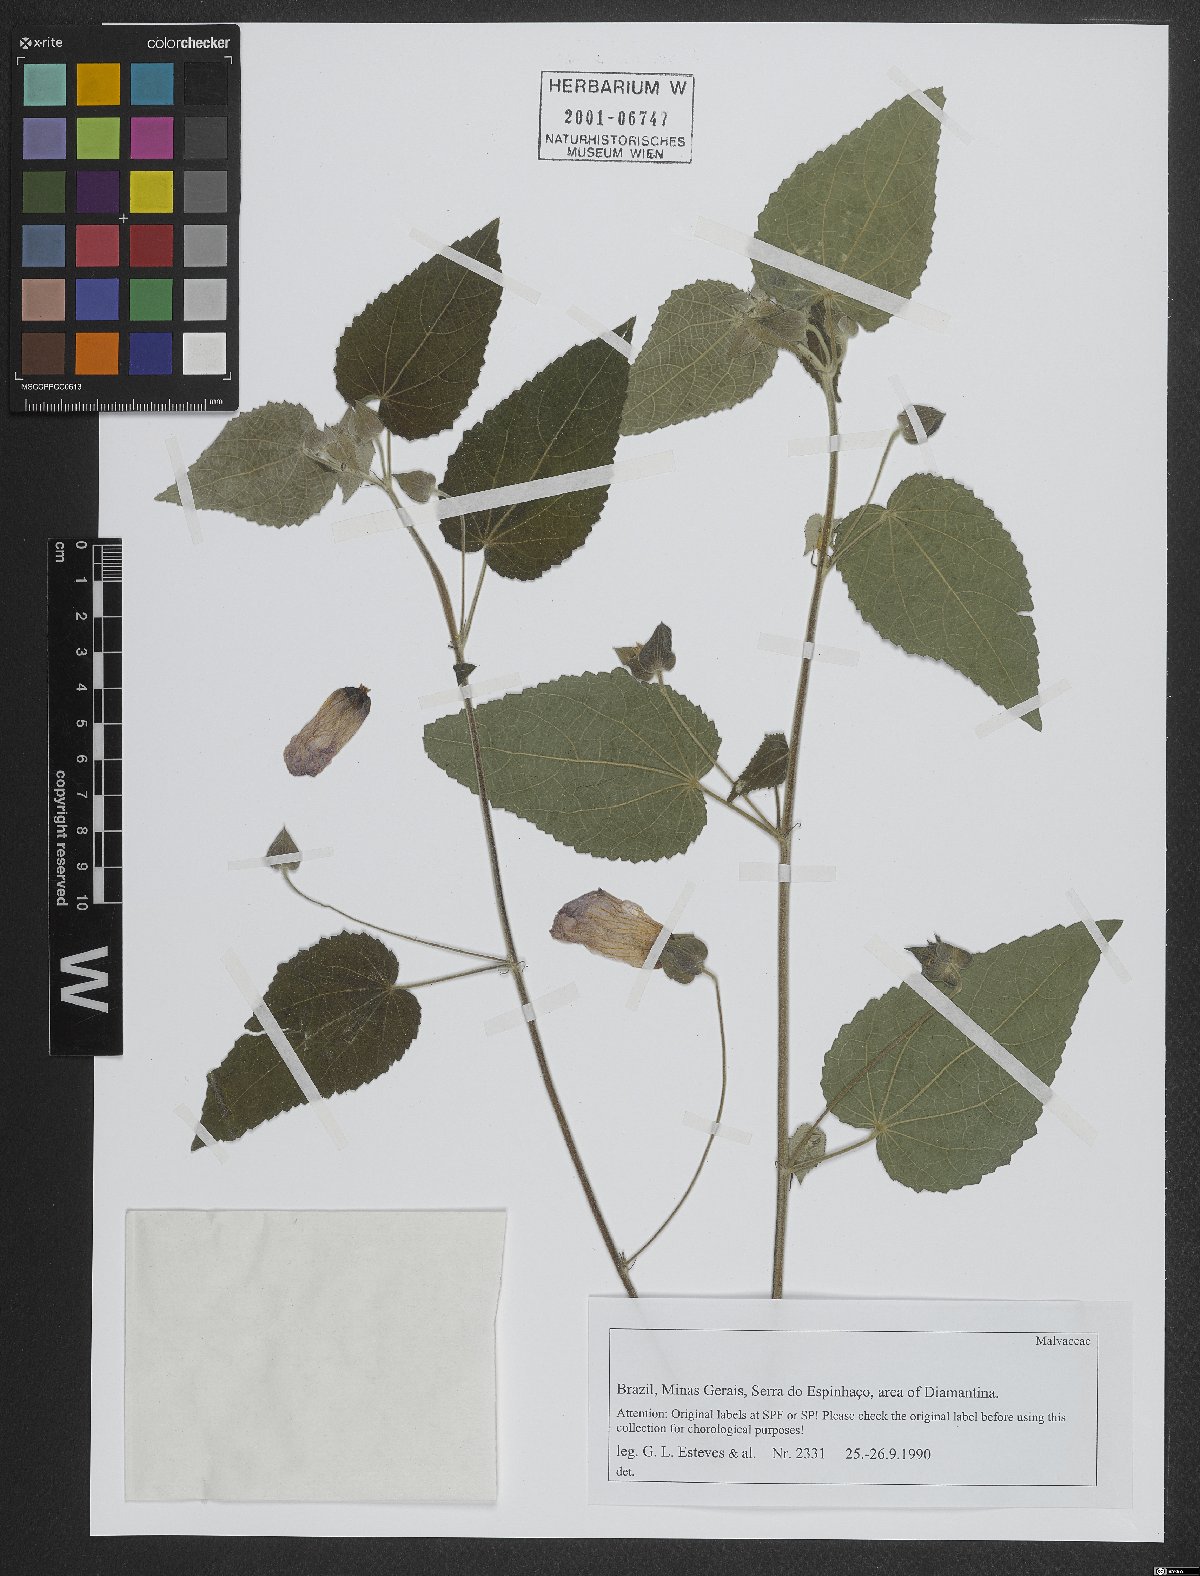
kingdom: Plantae
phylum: Tracheophyta
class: Magnoliopsida
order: Malvales
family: Malvaceae
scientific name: Malvaceae
